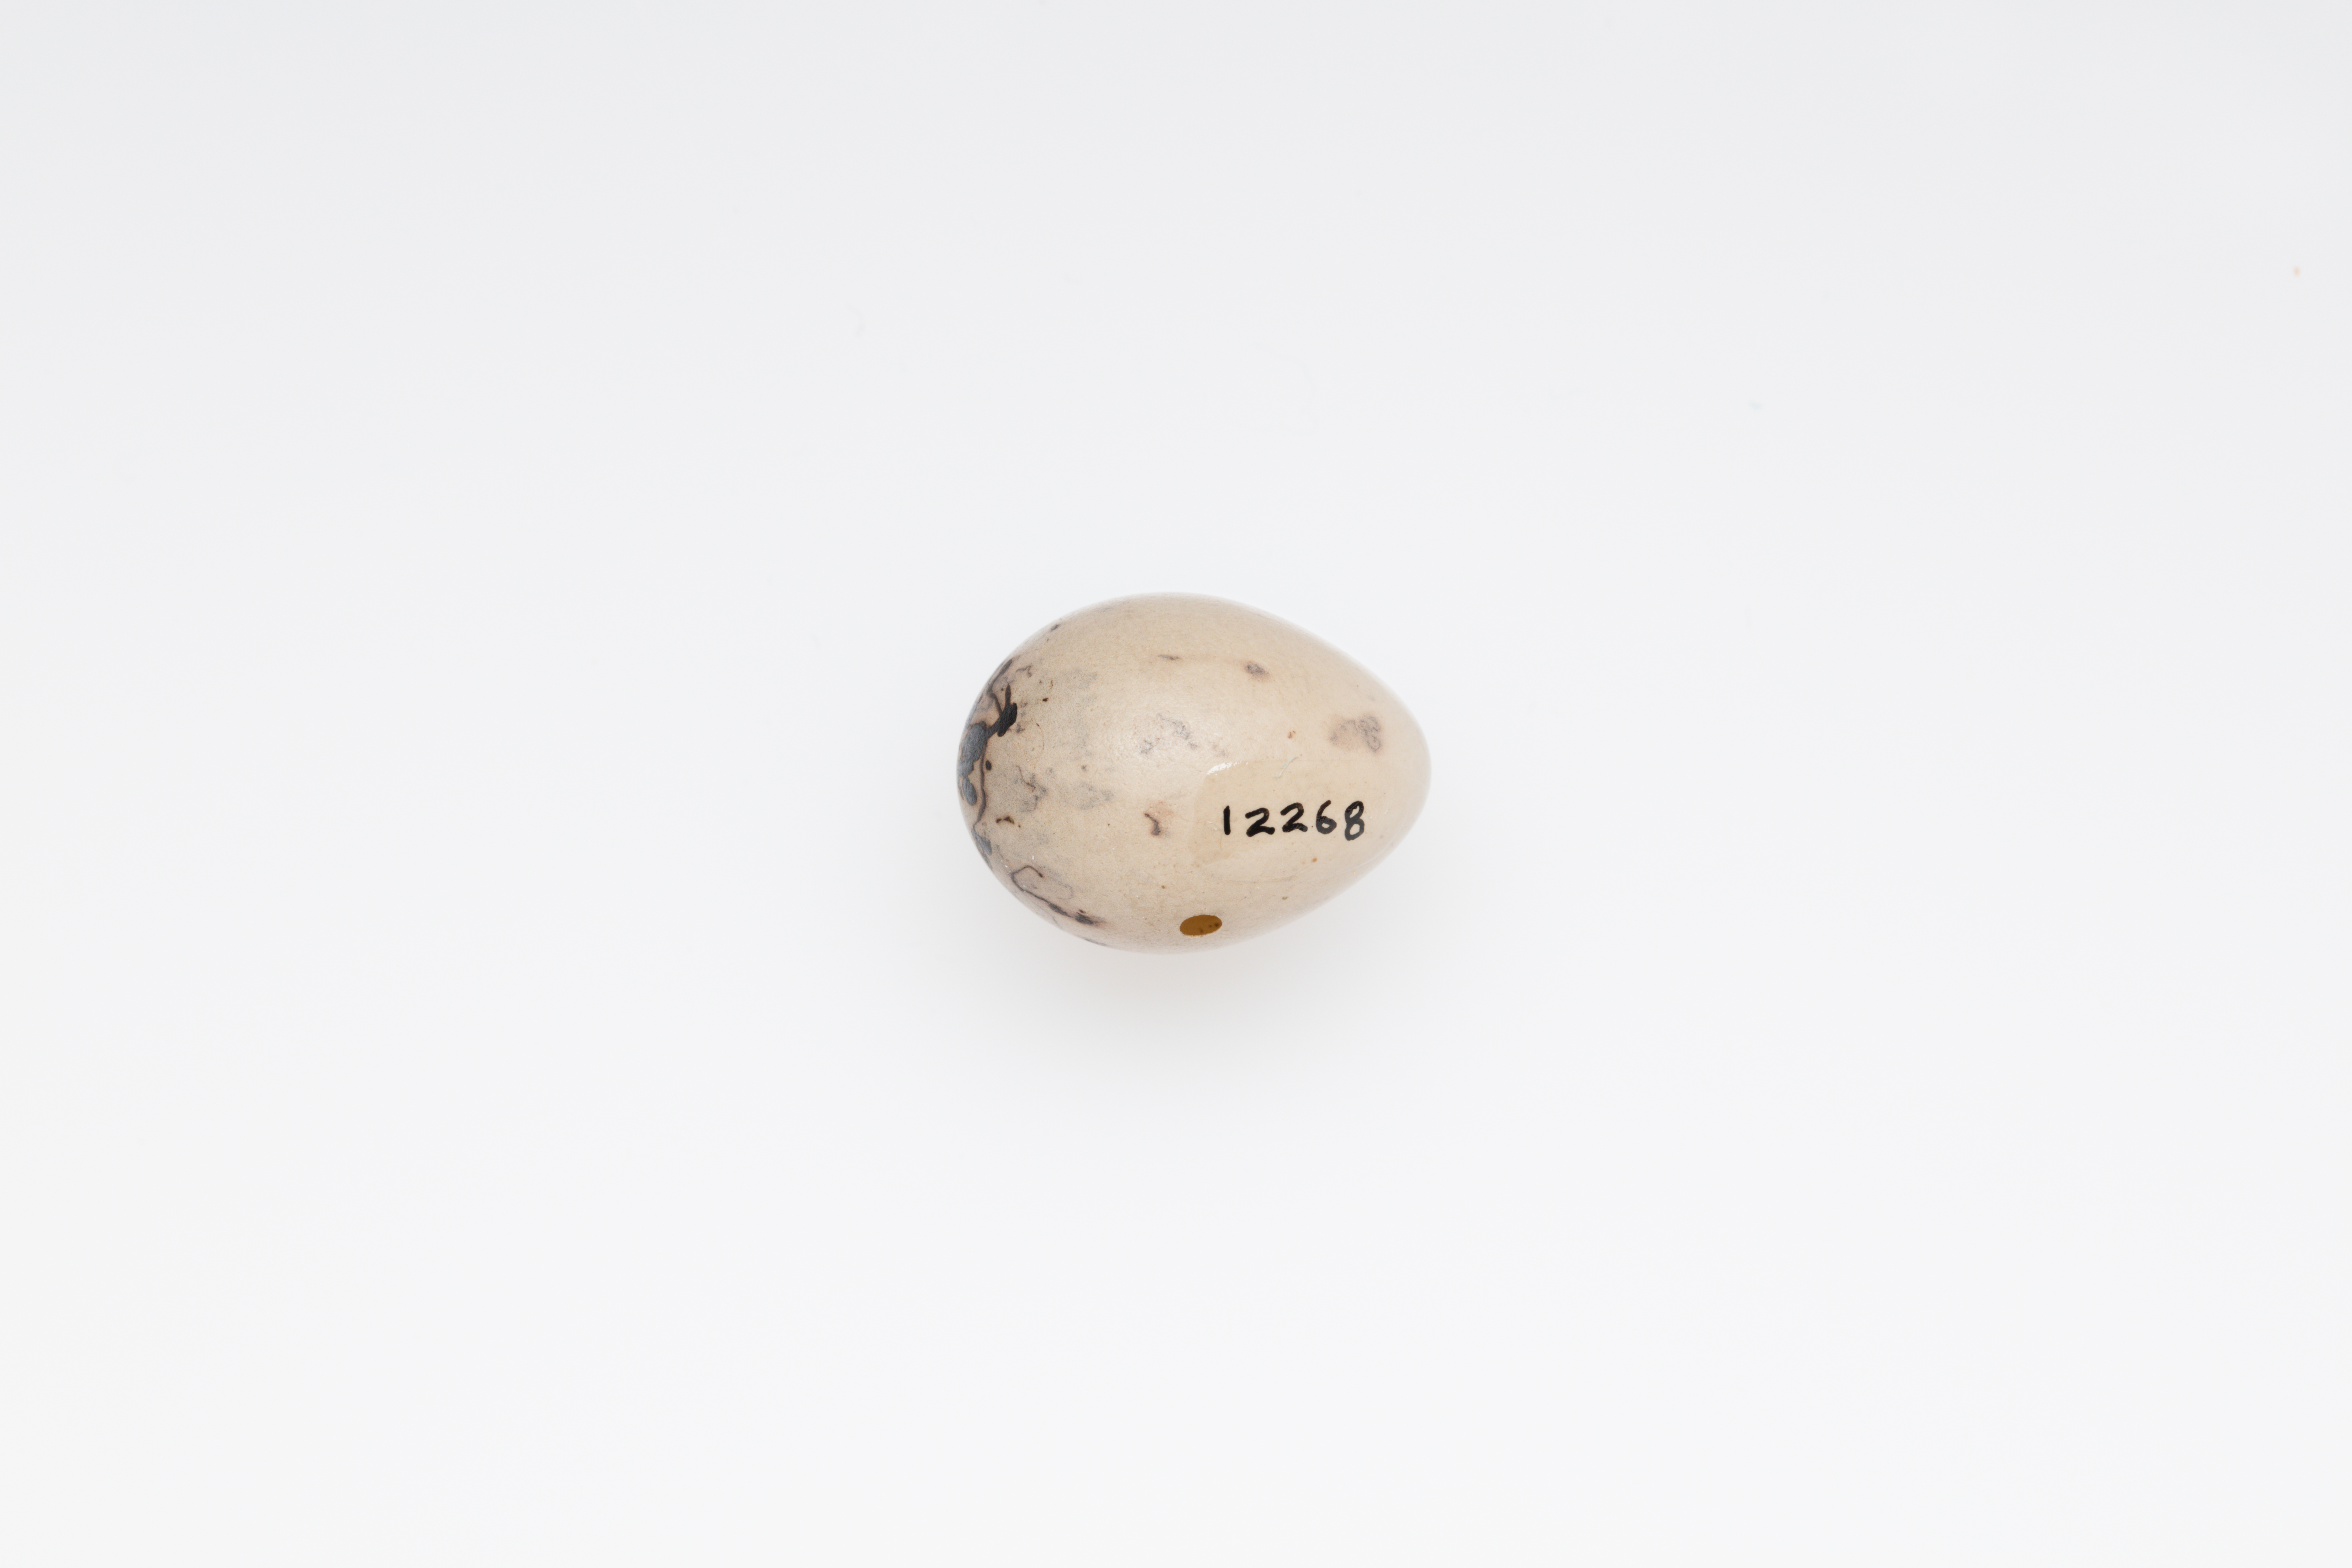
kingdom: Animalia
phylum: Chordata
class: Aves
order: Passeriformes
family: Fringillidae
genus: Fringilla
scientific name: Fringilla coelebs
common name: Common chaffinch
